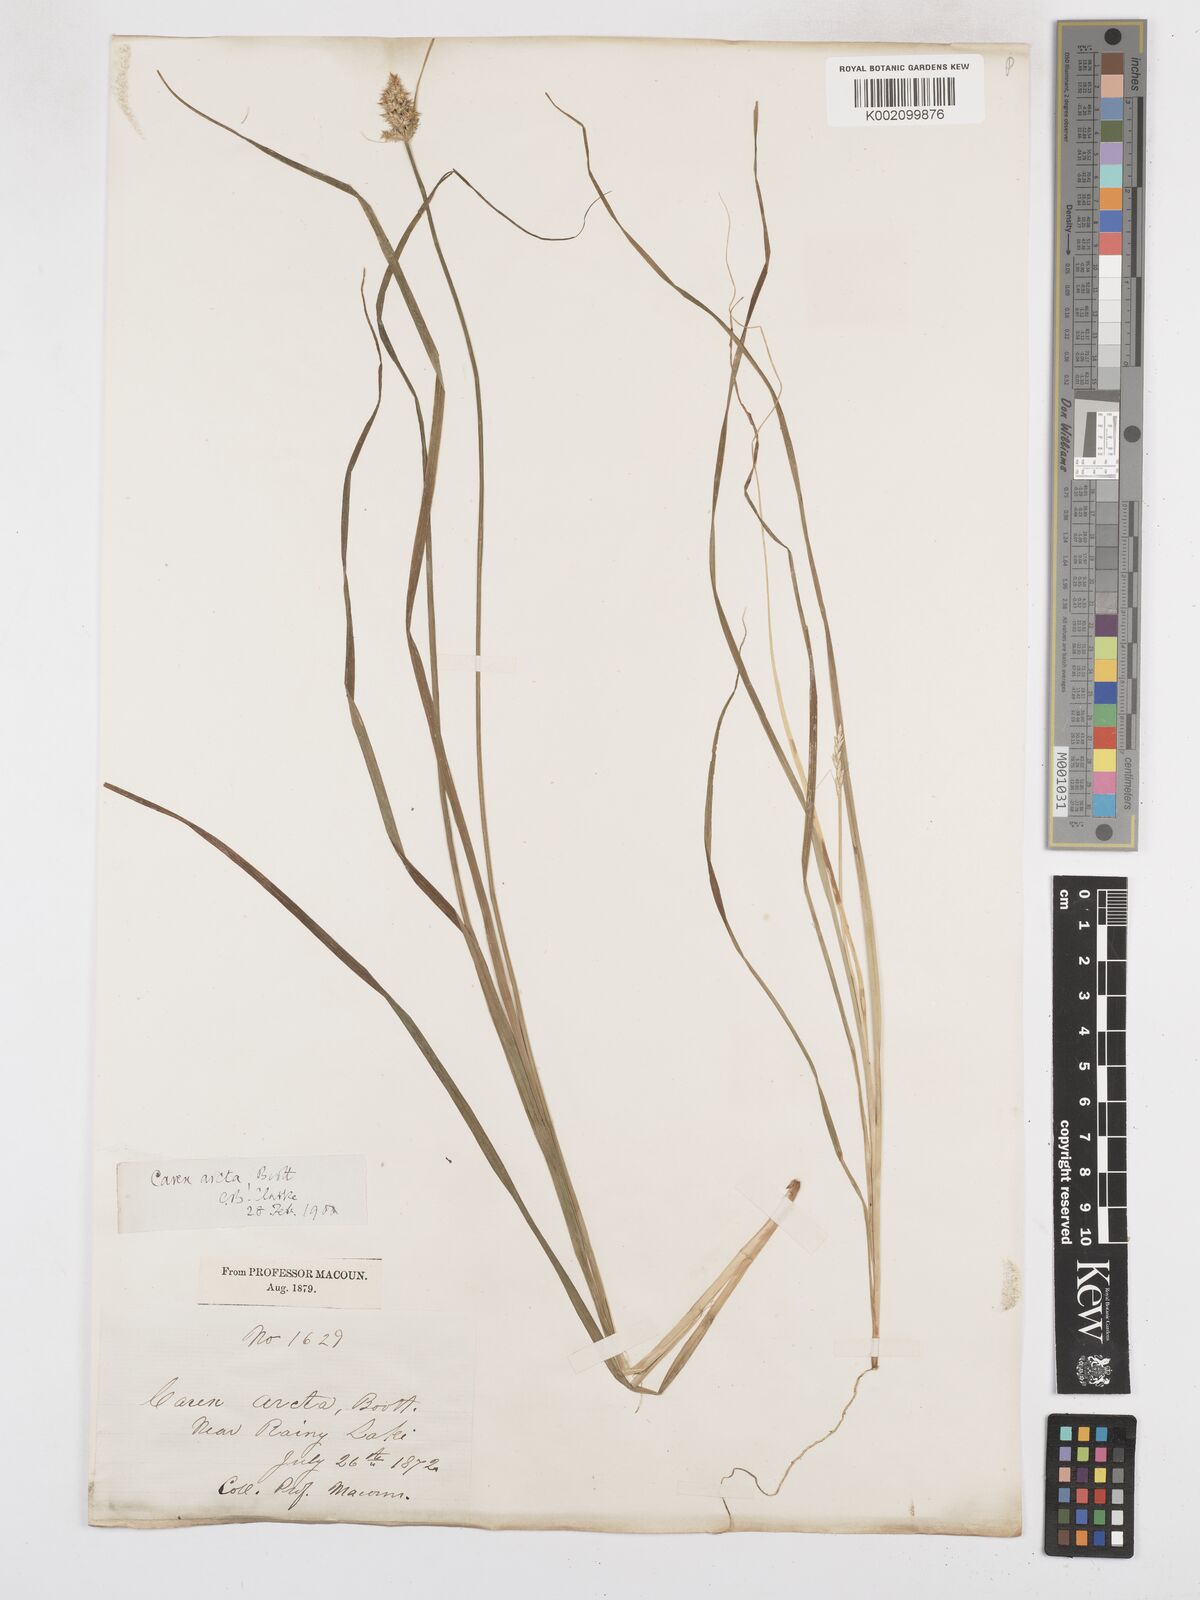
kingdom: Plantae
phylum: Tracheophyta
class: Liliopsida
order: Poales
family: Cyperaceae
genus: Carex
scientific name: Carex arcta
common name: Bear sedge
